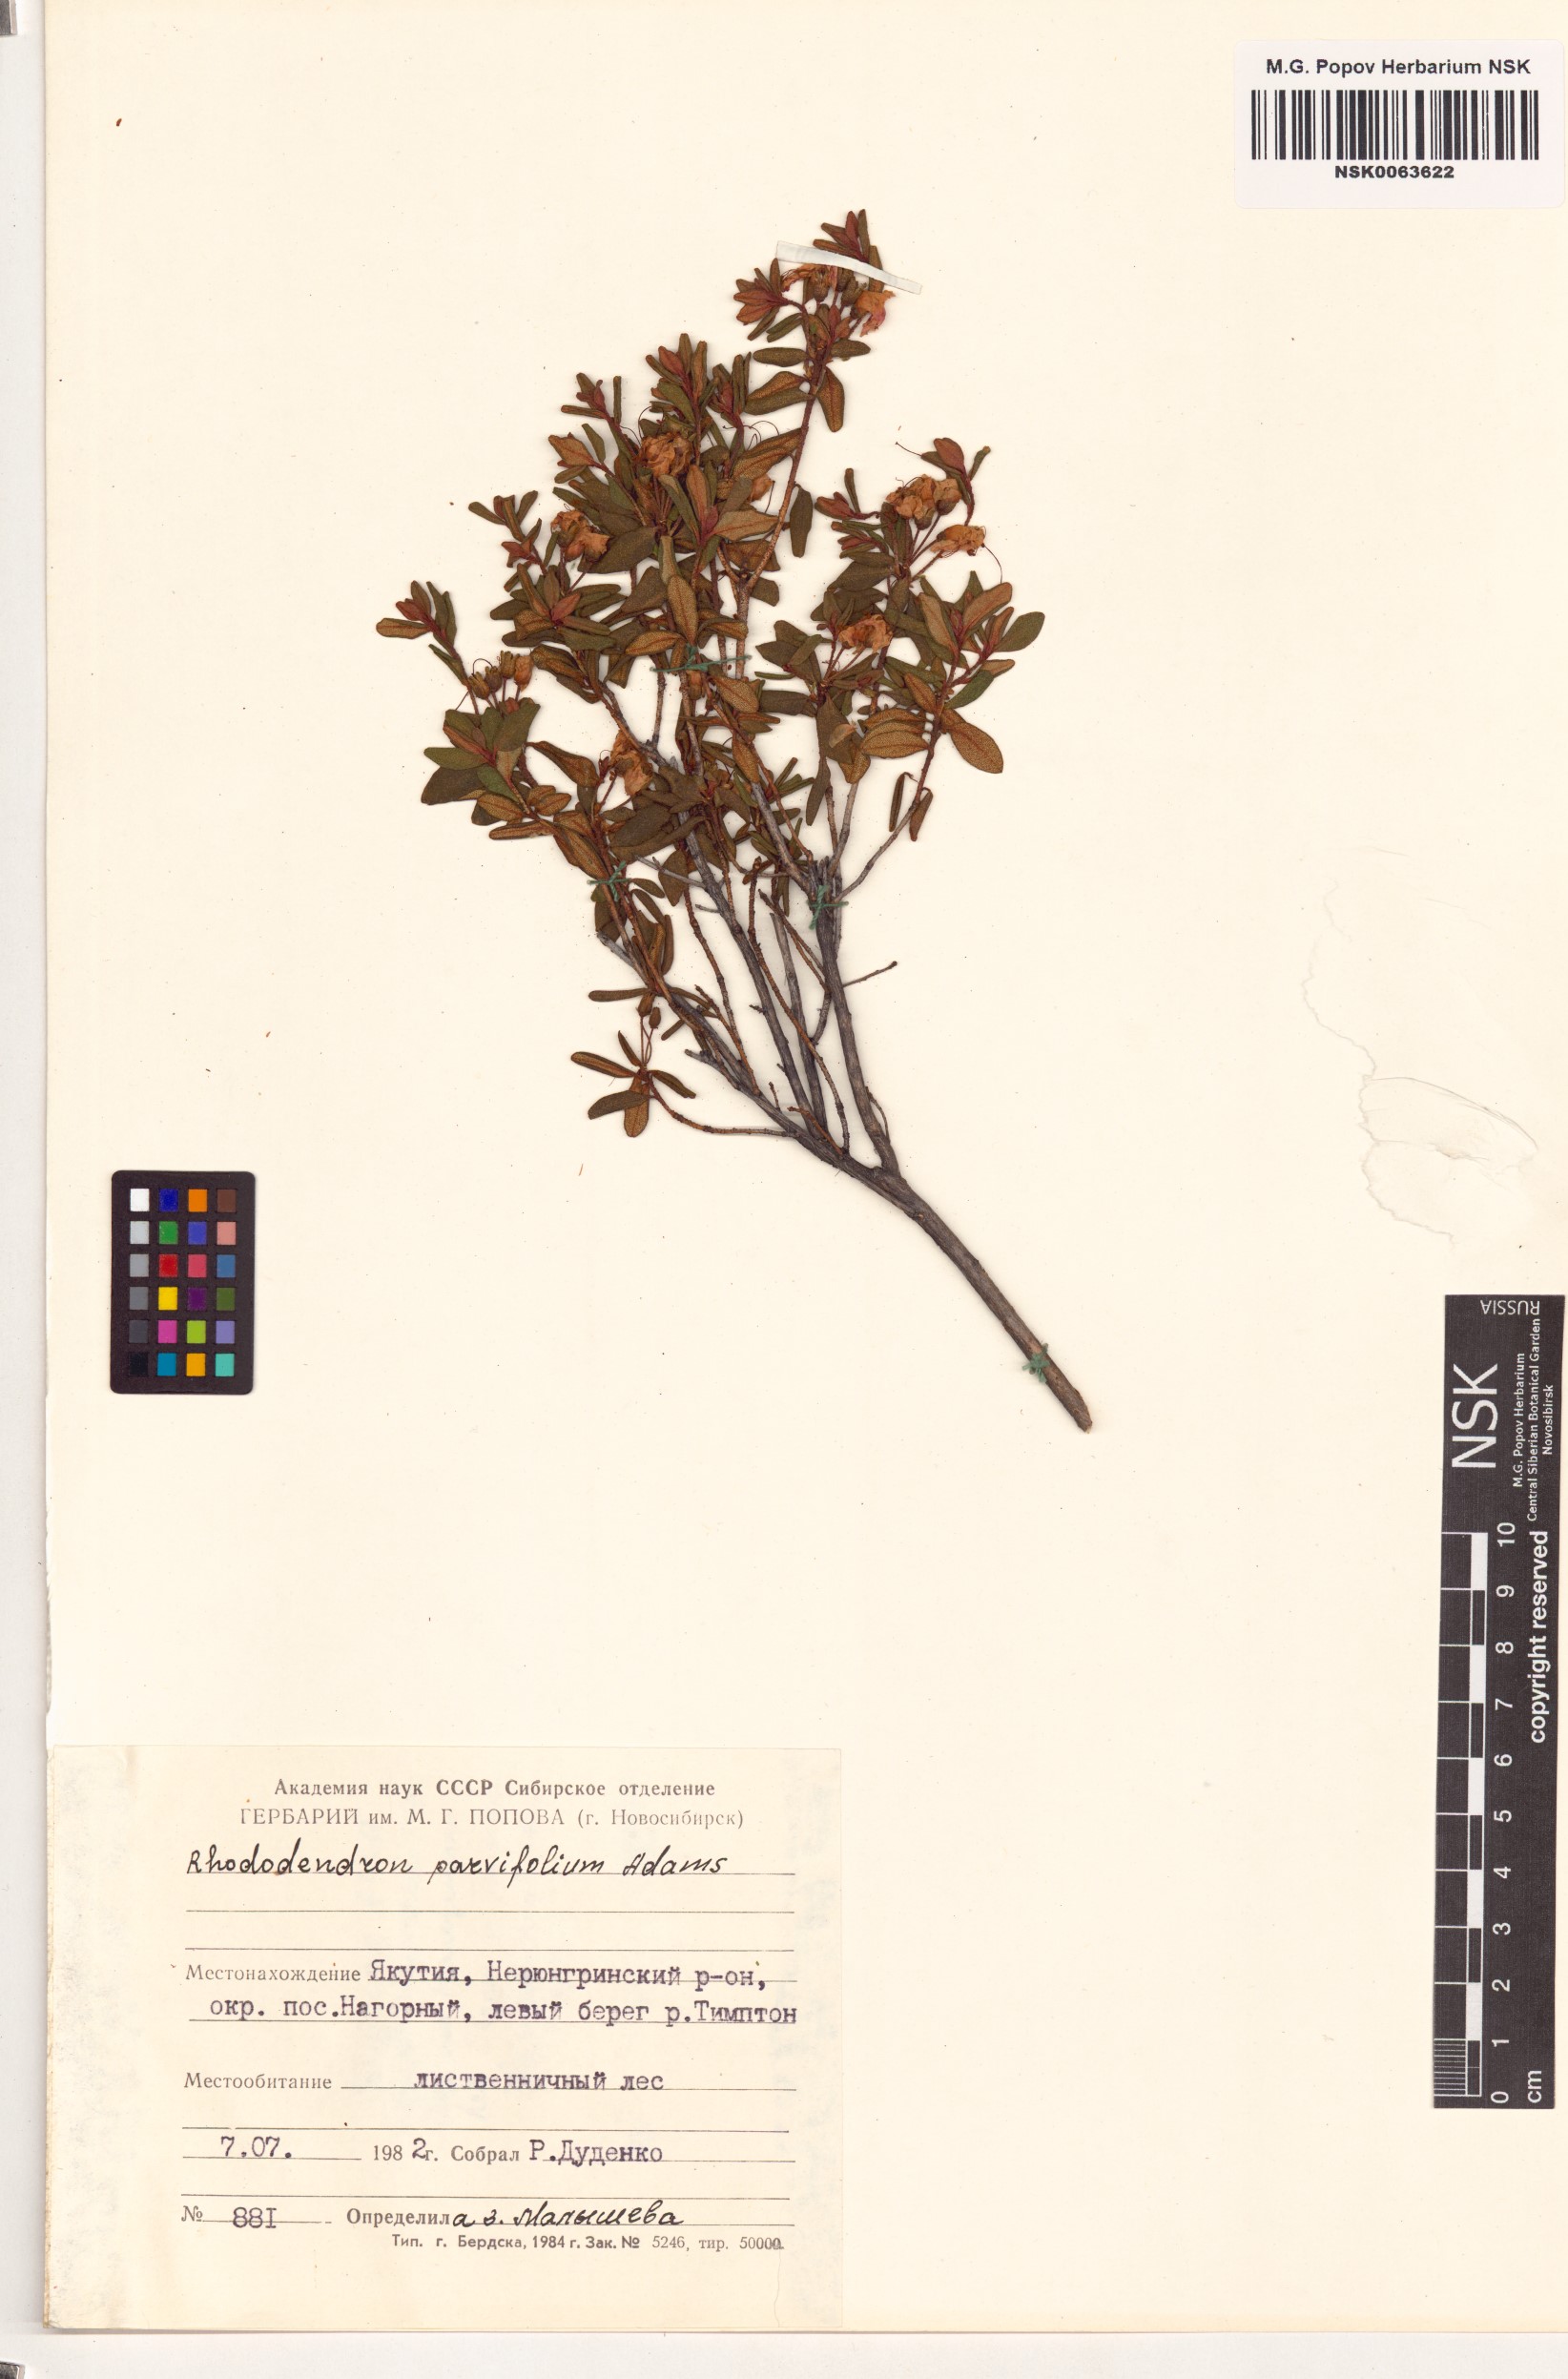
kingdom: Plantae
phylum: Tracheophyta
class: Magnoliopsida
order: Ericales
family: Ericaceae
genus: Rhododendron
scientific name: Rhododendron parvifolium
